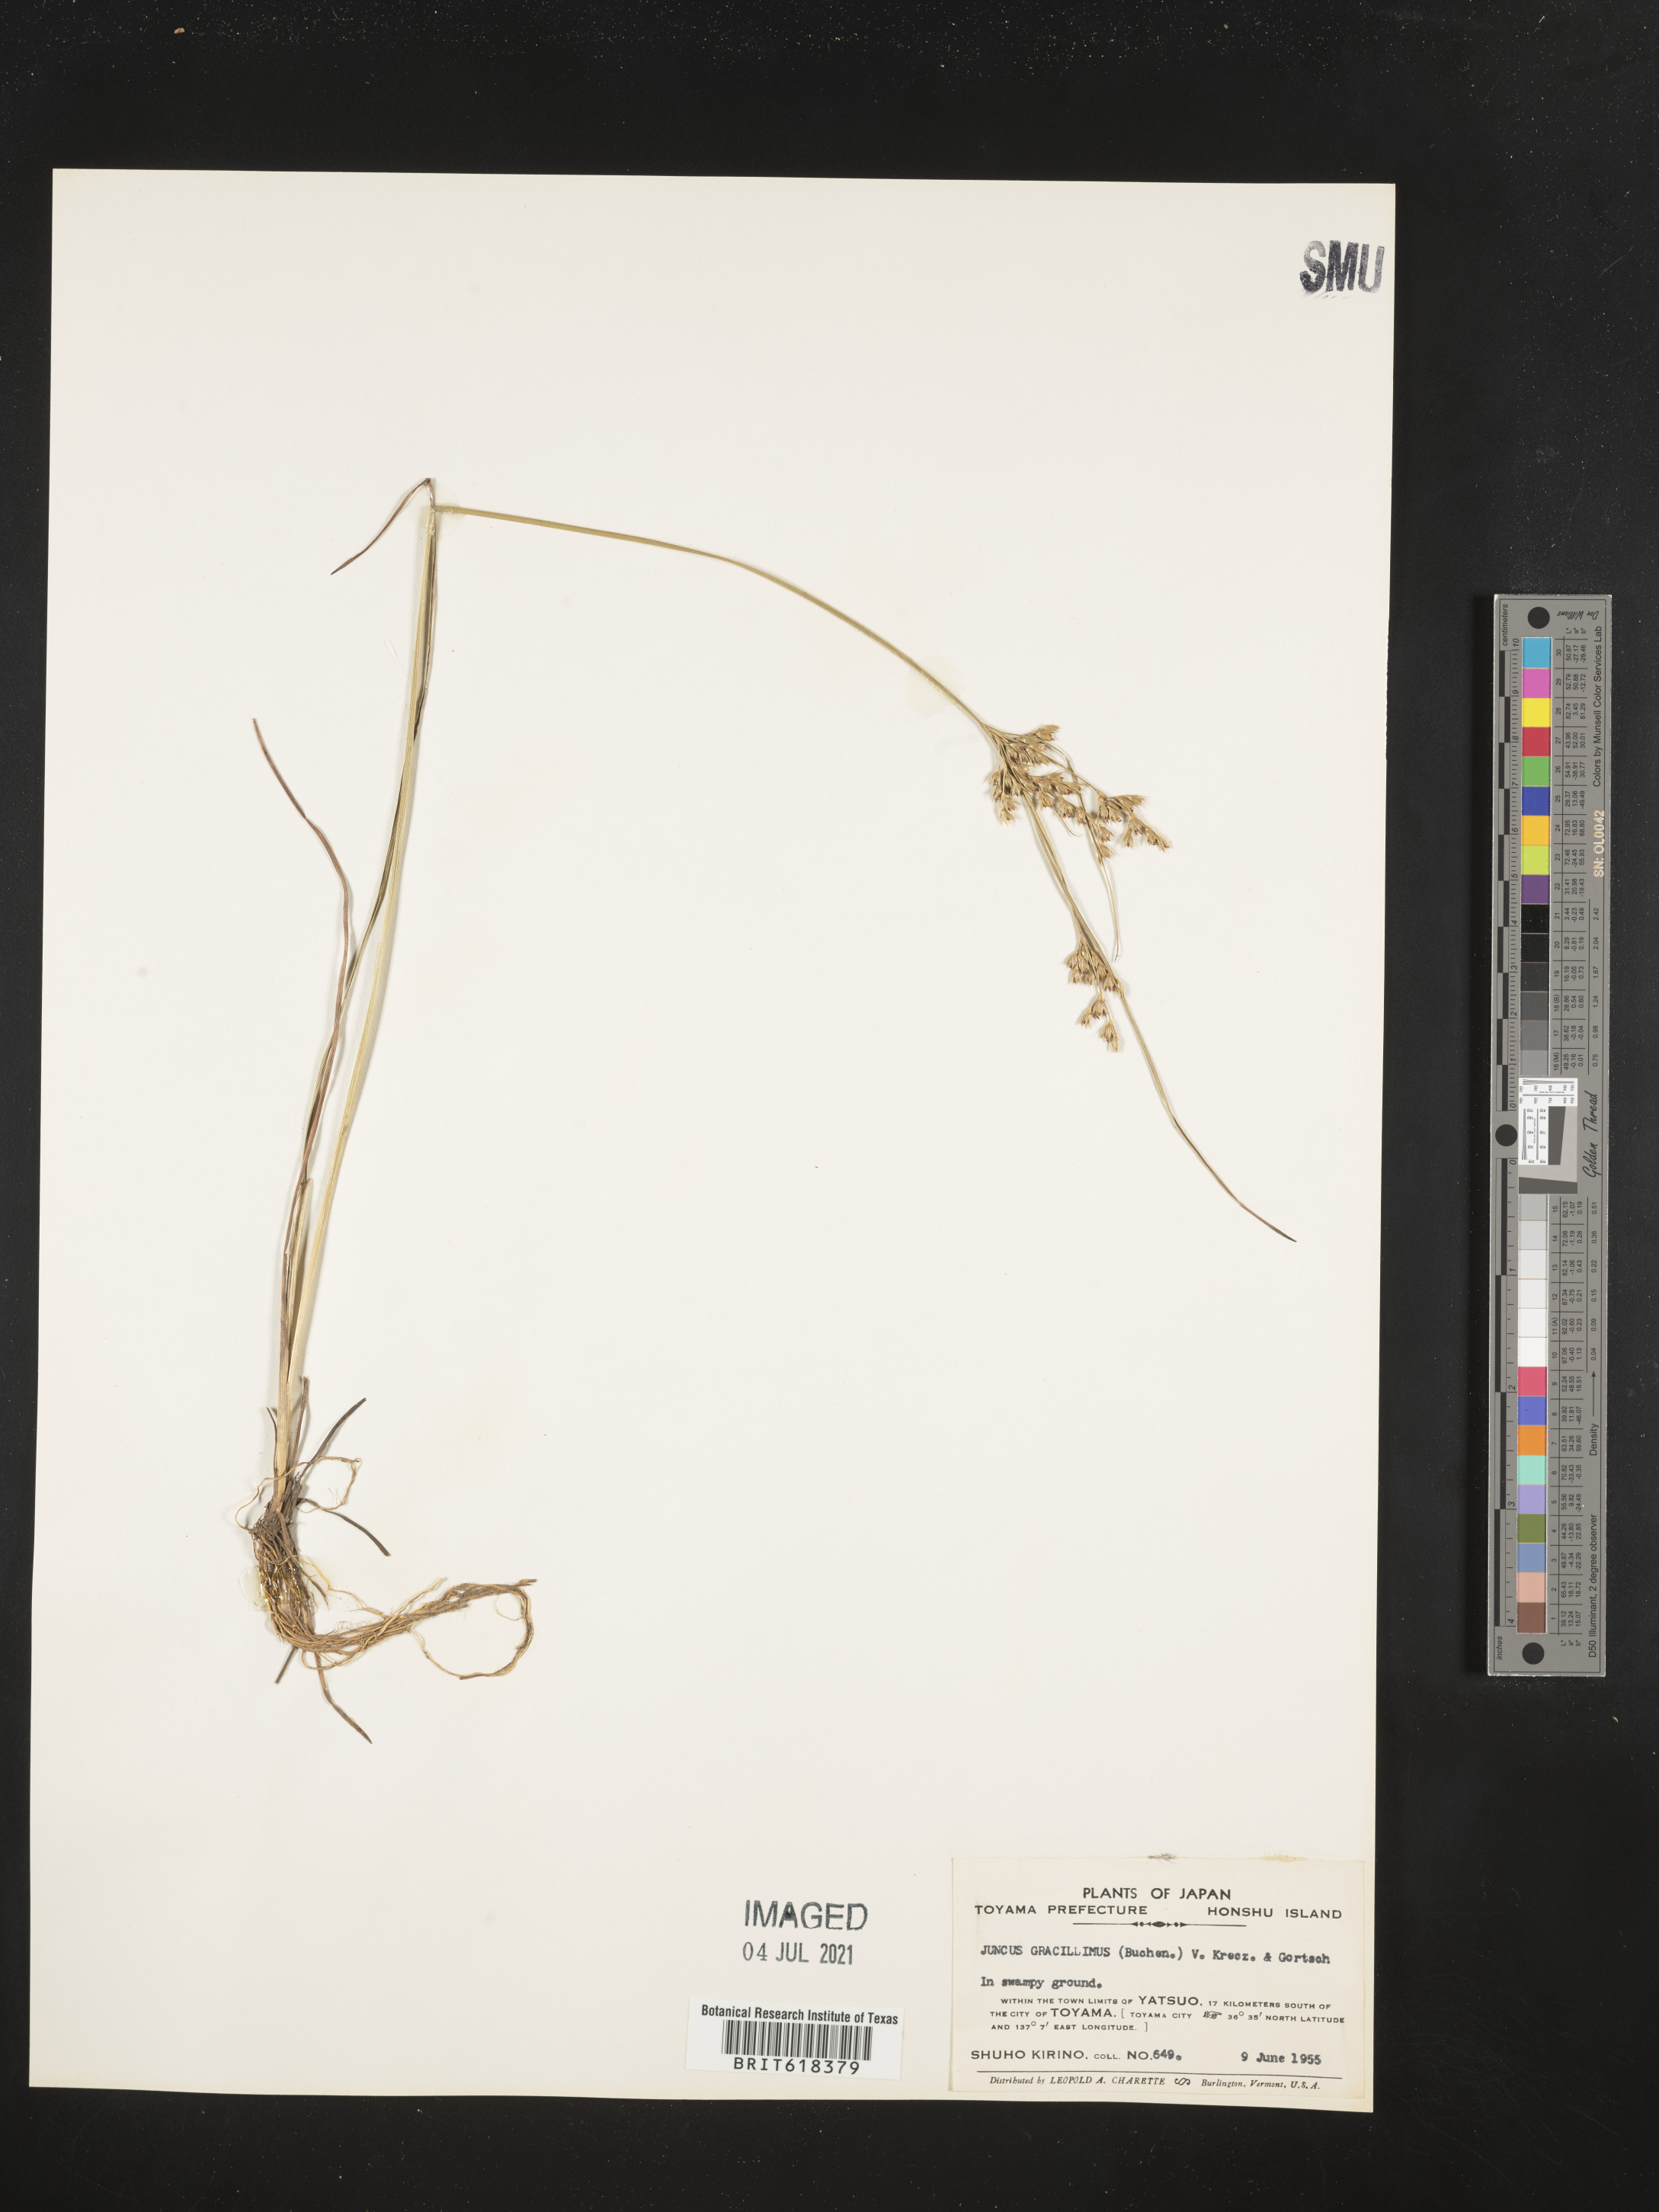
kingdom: Plantae
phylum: Tracheophyta
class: Liliopsida
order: Poales
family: Juncaceae
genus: Juncus
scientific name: Juncus gracillimus
